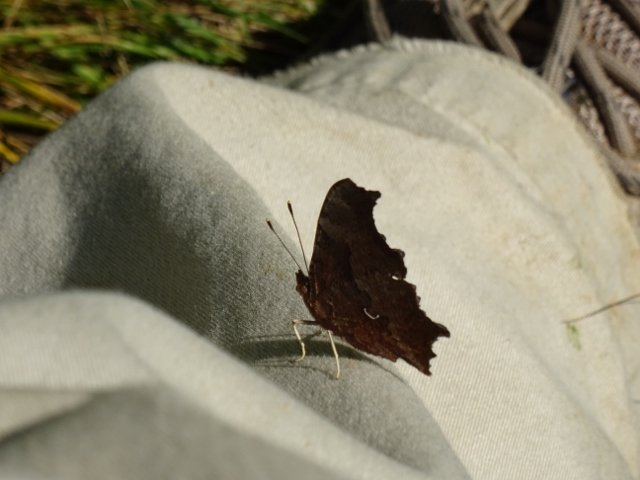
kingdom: Animalia
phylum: Arthropoda
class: Insecta
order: Lepidoptera
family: Nymphalidae
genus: Polygonia
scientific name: Polygonia comma
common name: Eastern Comma
